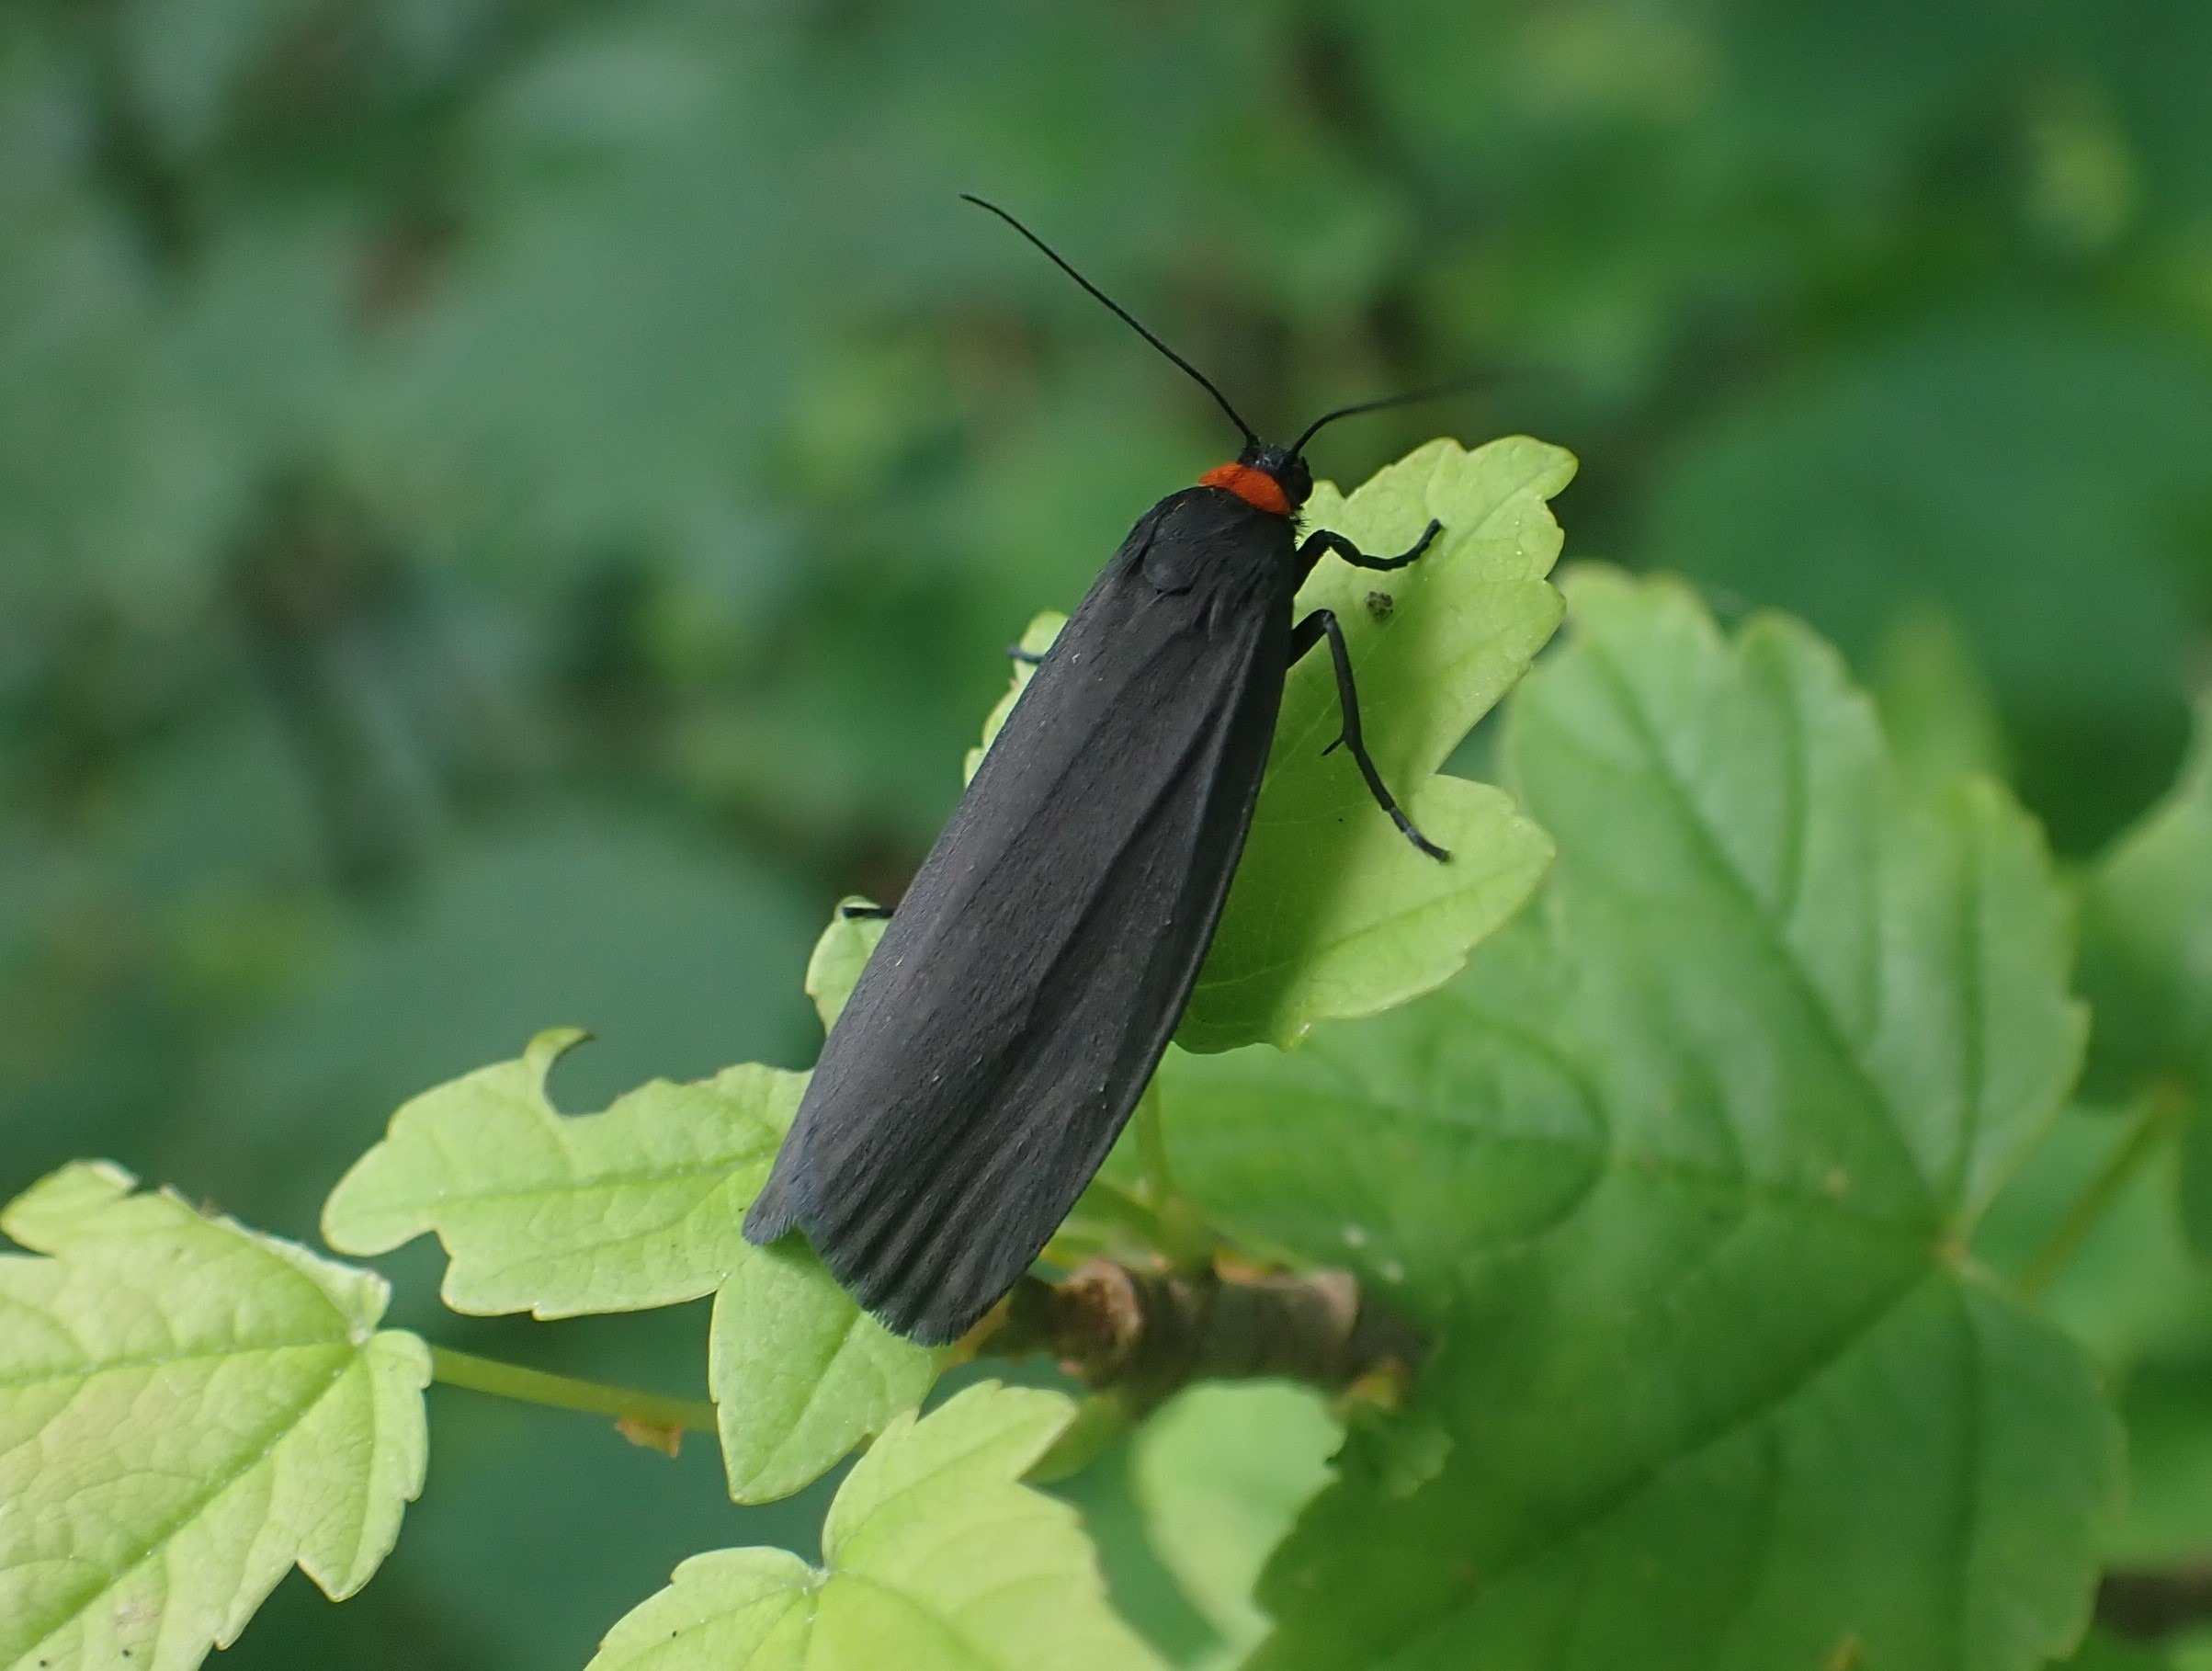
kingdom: Animalia
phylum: Arthropoda
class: Insecta
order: Lepidoptera
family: Erebidae
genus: Atolmis
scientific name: Atolmis rubricollis
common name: Blodnakke
